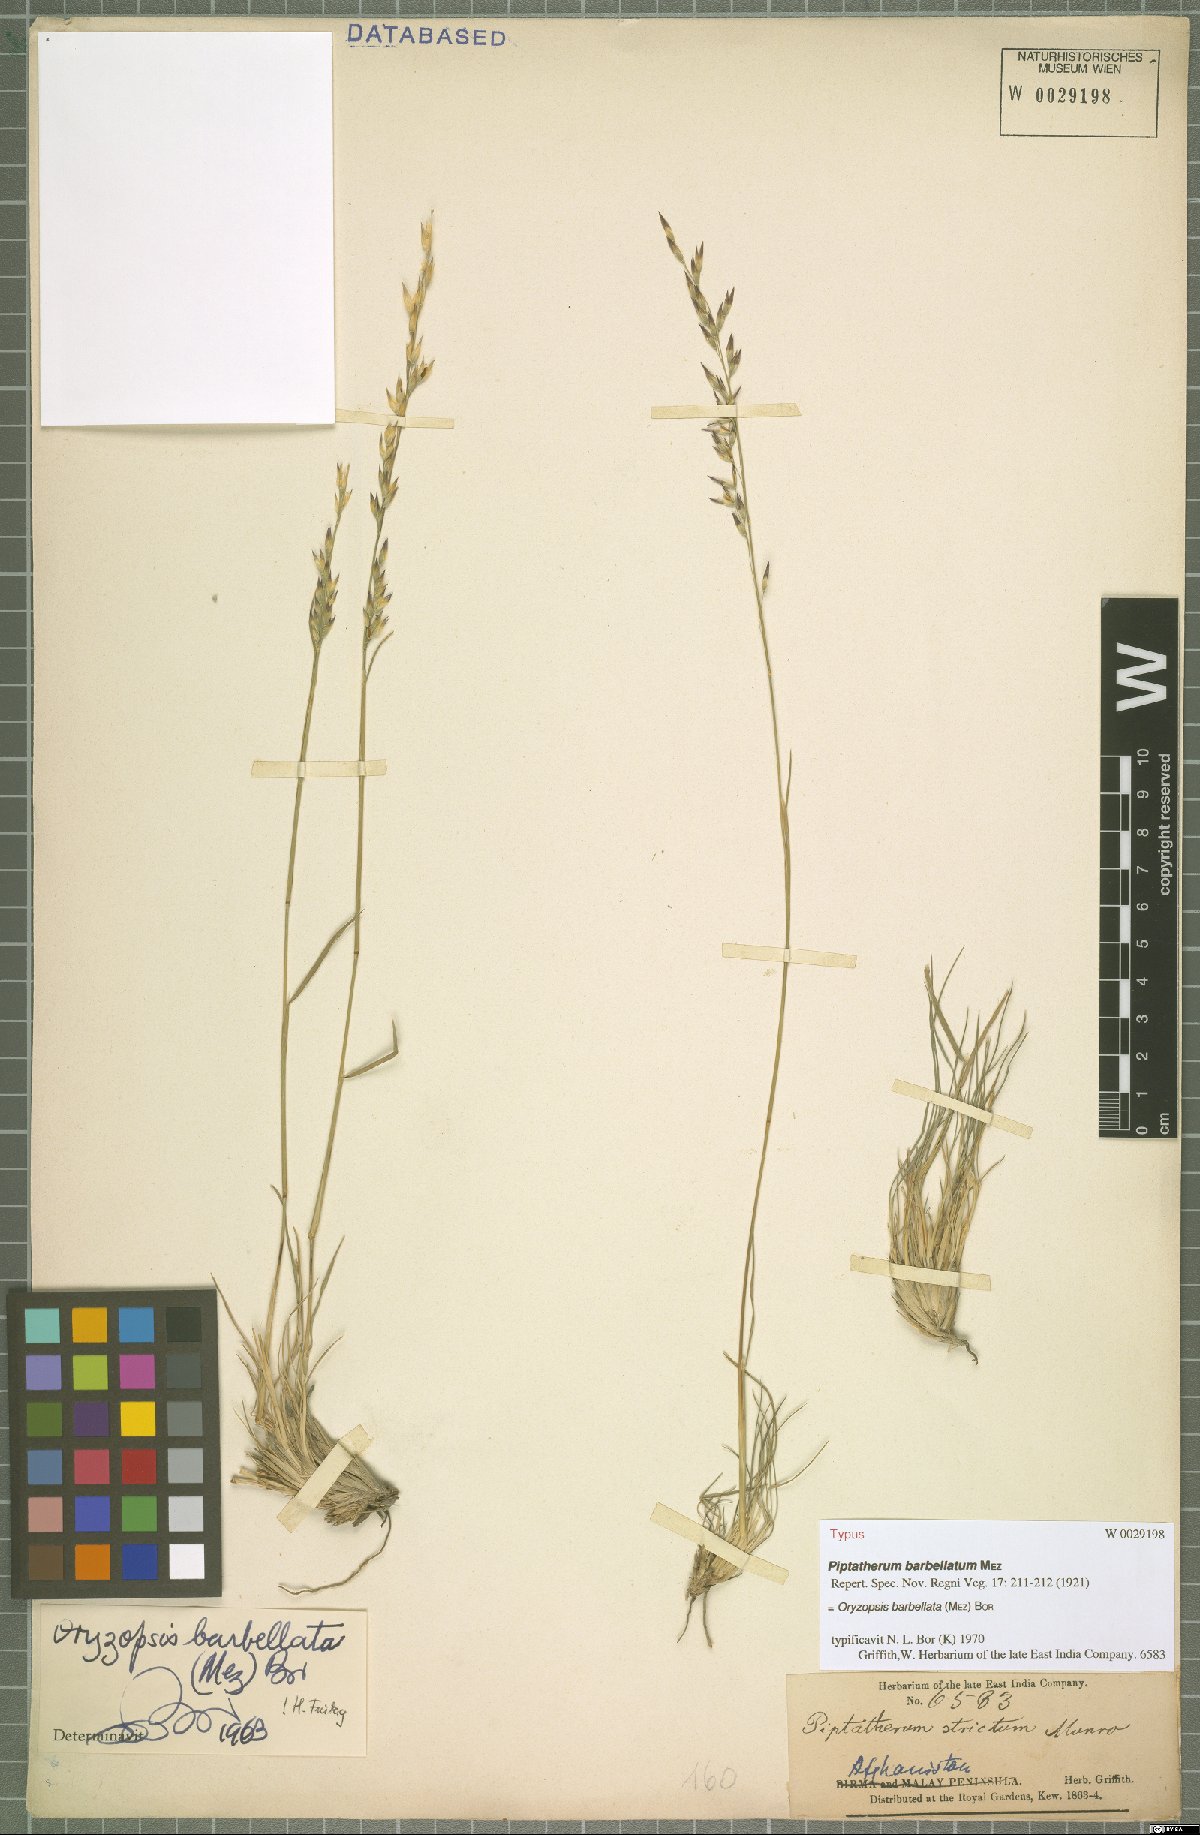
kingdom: Plantae
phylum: Tracheophyta
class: Liliopsida
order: Poales
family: Poaceae
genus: Piptatherum
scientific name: Piptatherum barbellatum
